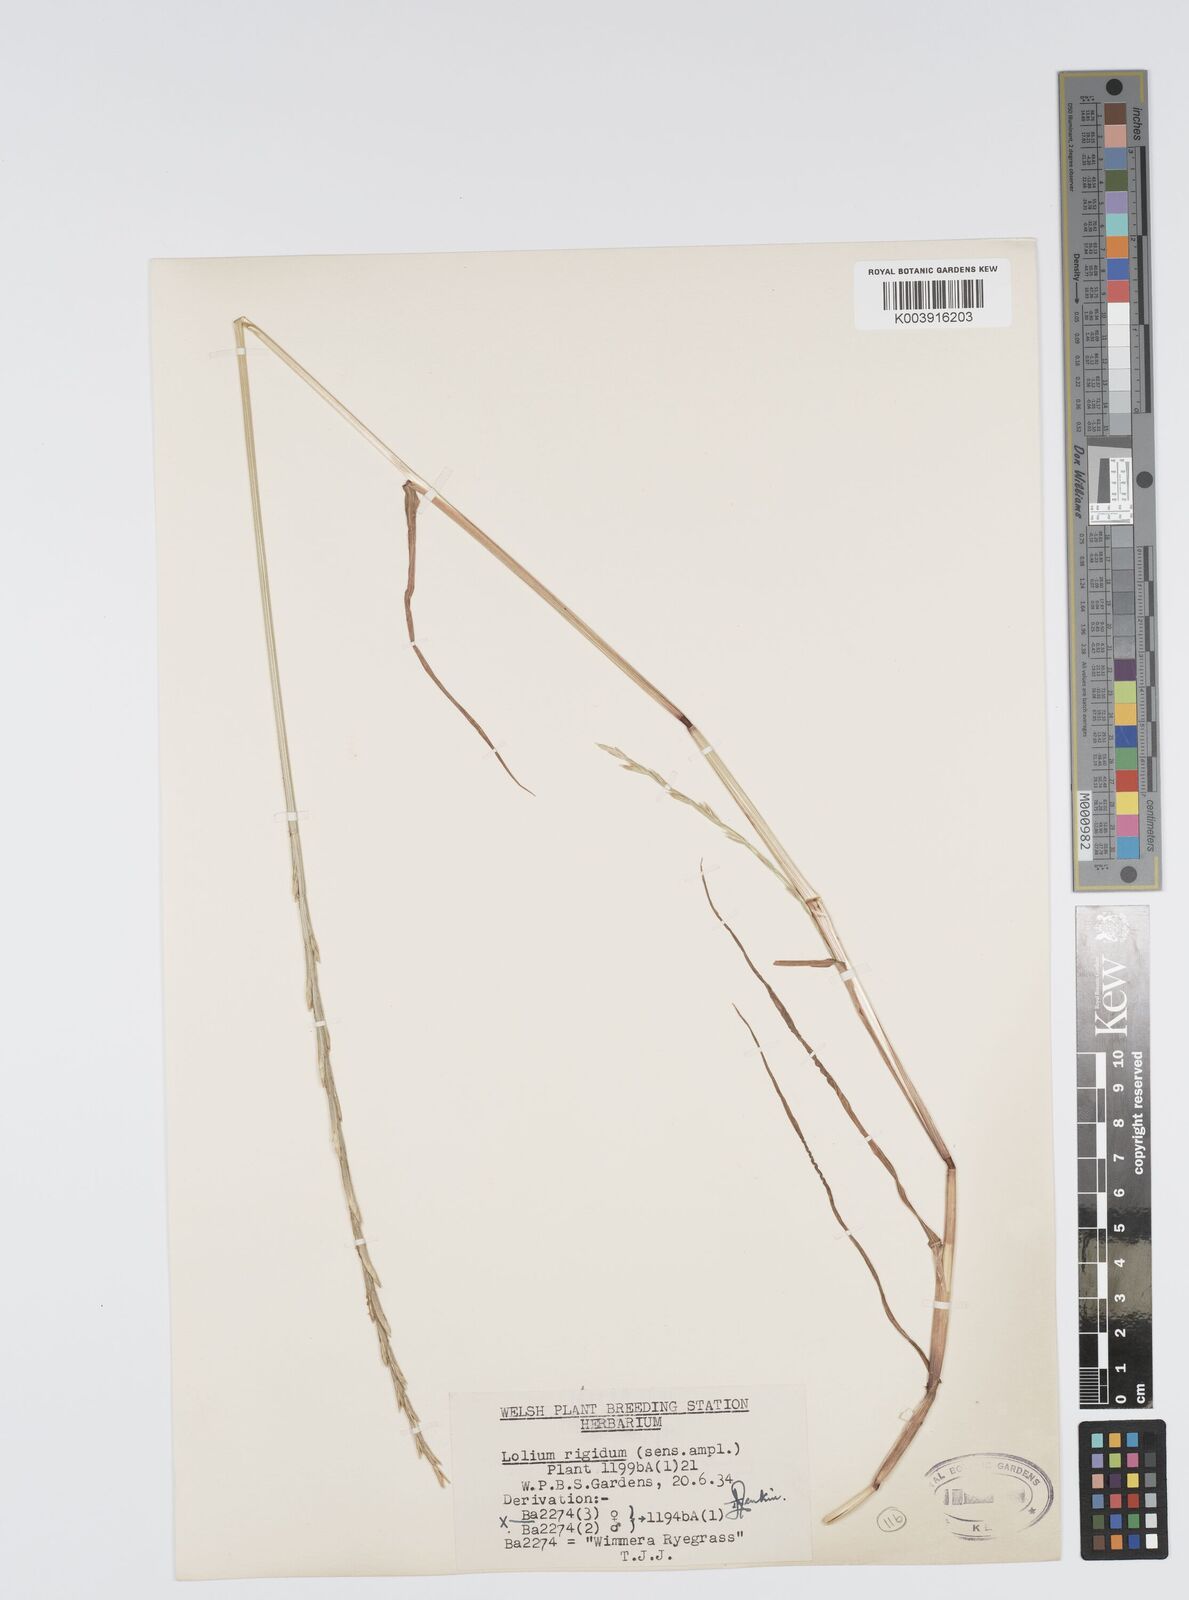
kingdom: Plantae
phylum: Tracheophyta
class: Liliopsida
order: Poales
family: Poaceae
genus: Lolium
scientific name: Lolium rigidum
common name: Wimmera ryegrass
